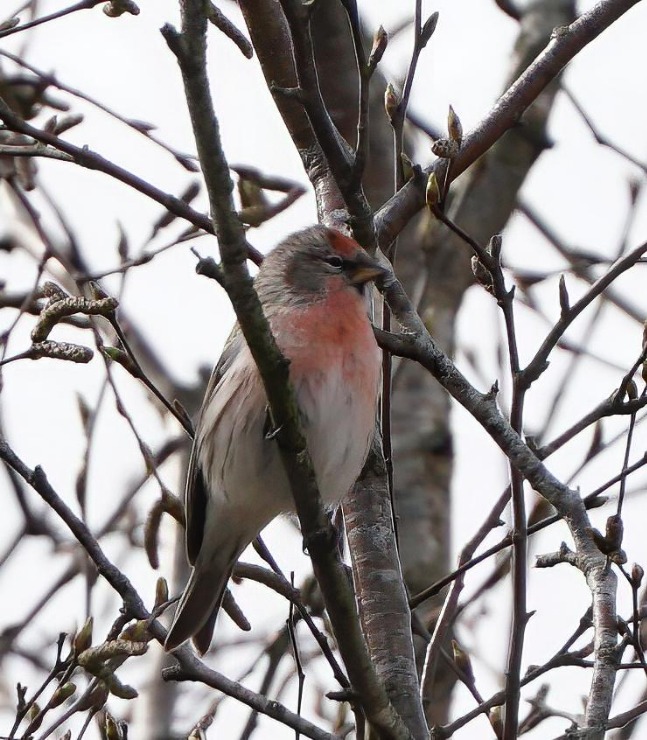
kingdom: Animalia
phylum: Chordata
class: Aves
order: Passeriformes
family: Fringillidae
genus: Acanthis
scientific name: Acanthis flammea
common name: Nordlig gråsisken
